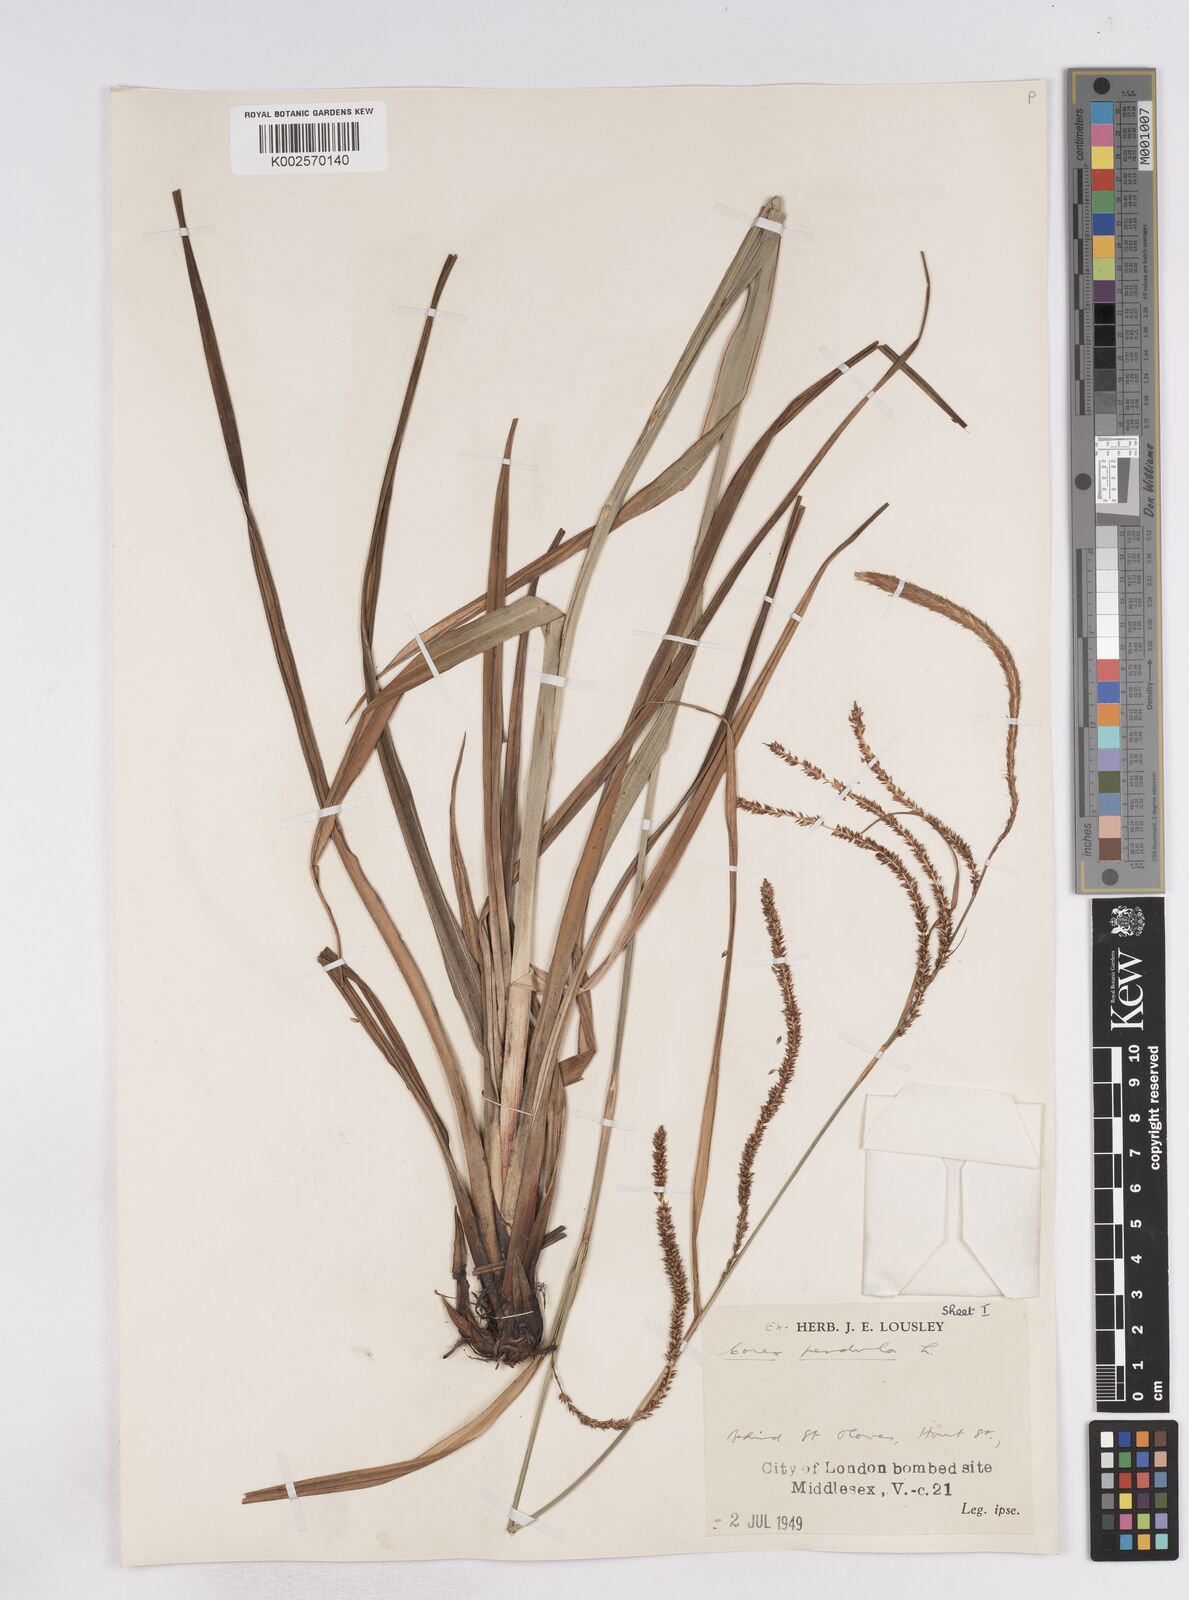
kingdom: Plantae
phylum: Tracheophyta
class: Liliopsida
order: Poales
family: Cyperaceae
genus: Carex
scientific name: Carex pendula
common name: Pendulous sedge
